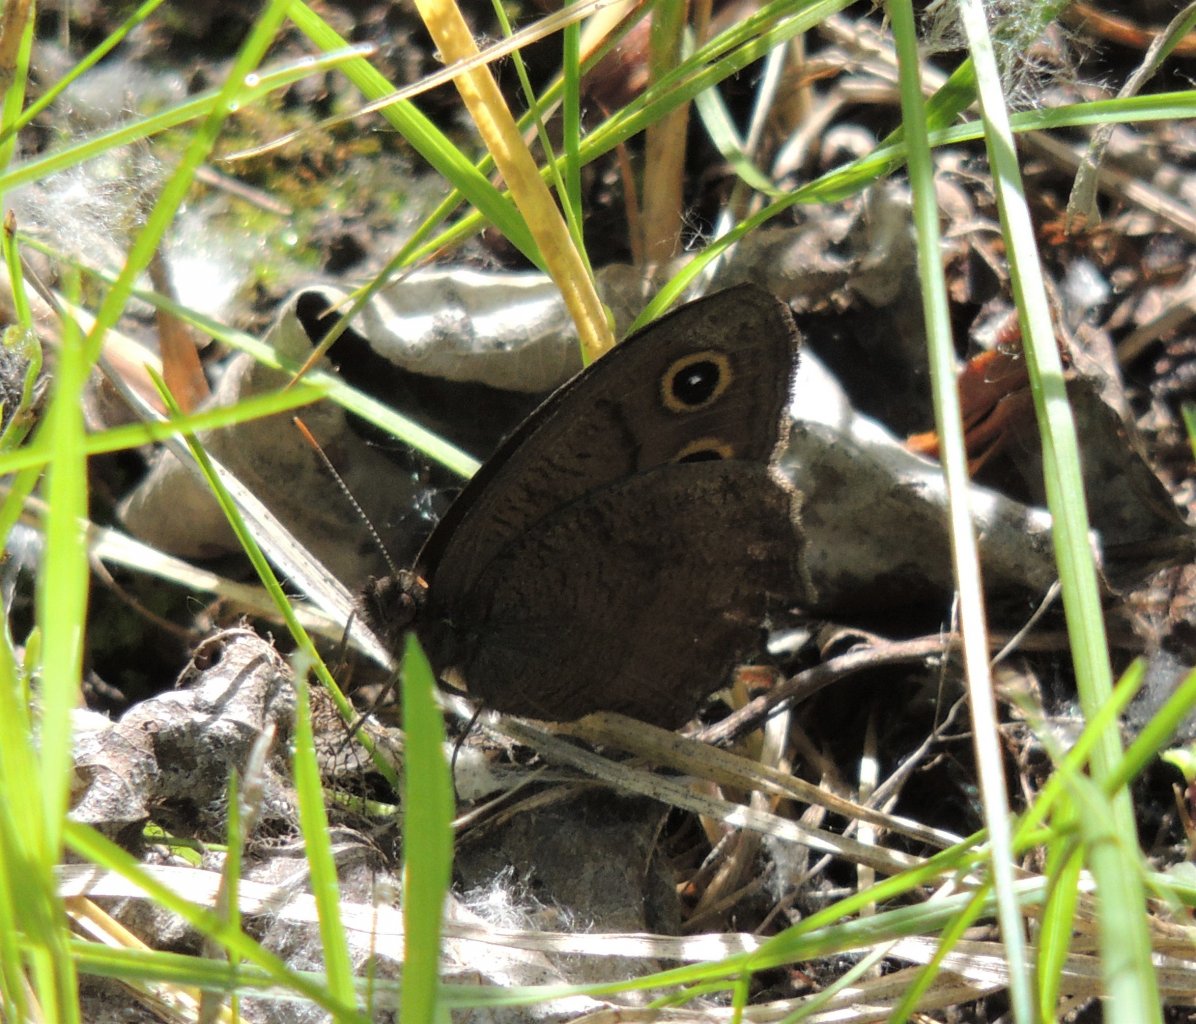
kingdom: Animalia
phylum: Arthropoda
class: Insecta
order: Lepidoptera
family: Nymphalidae
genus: Cercyonis
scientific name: Cercyonis pegala
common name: Common Wood-Nymph
